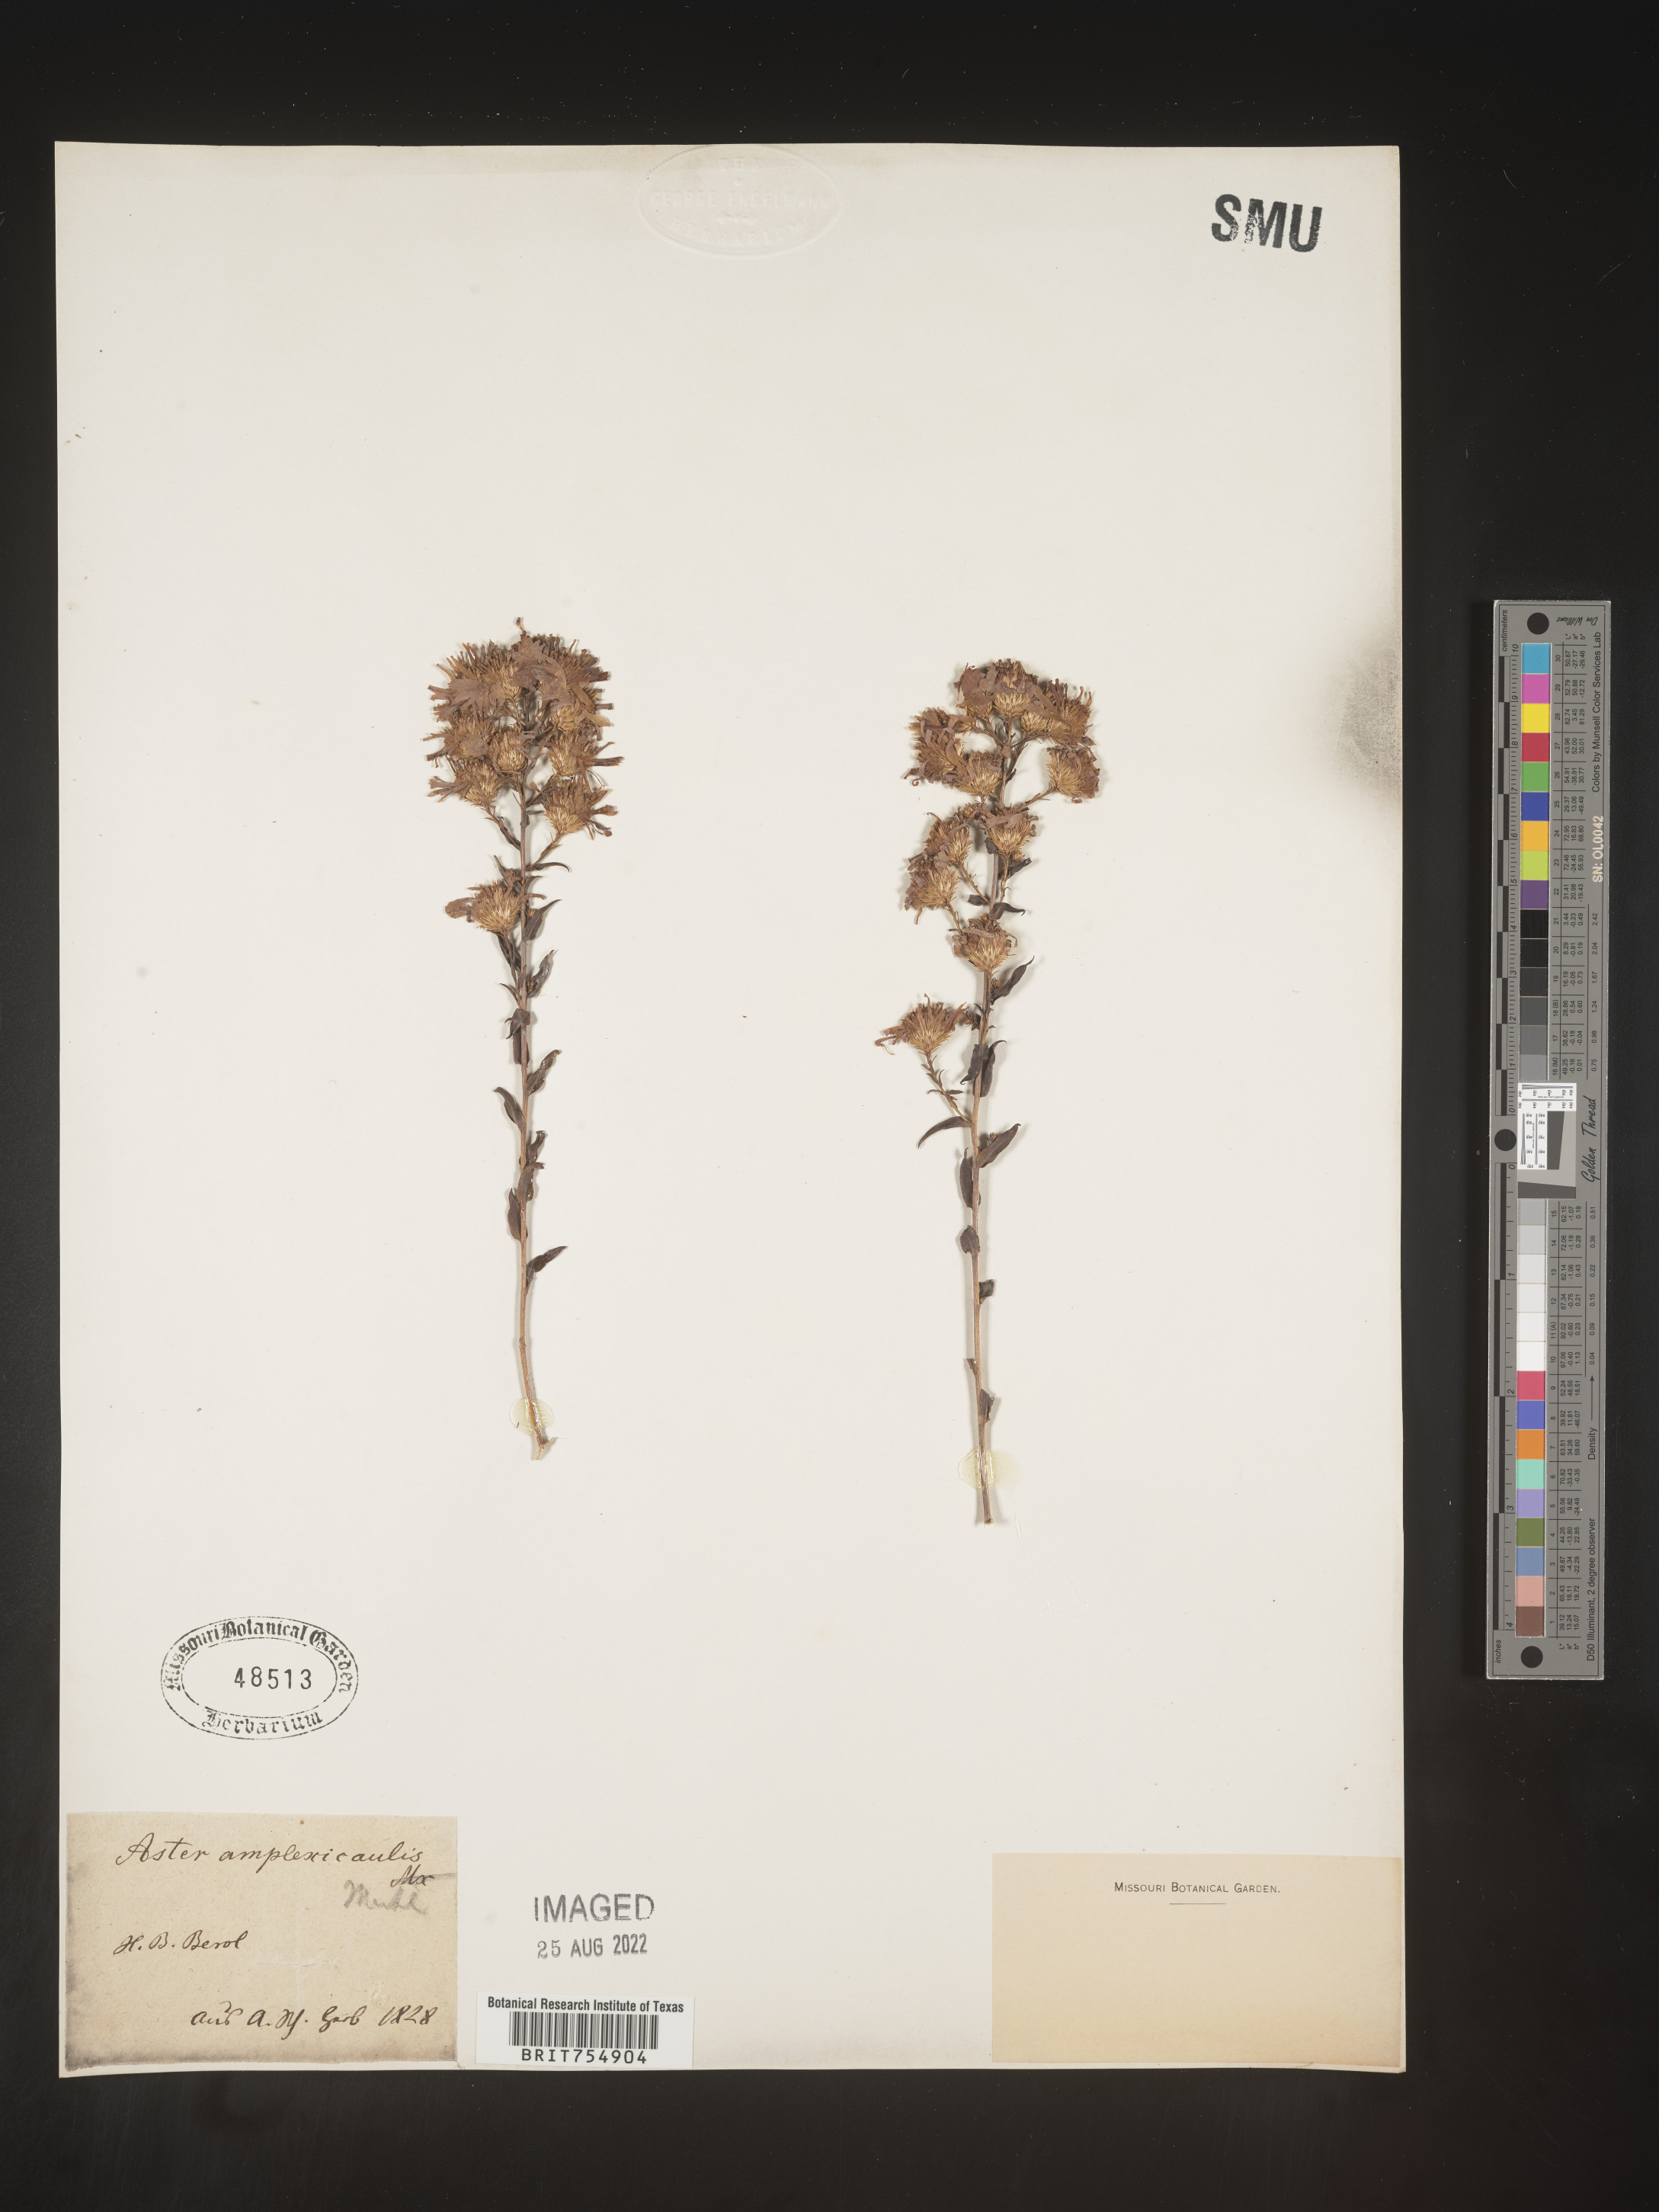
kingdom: Plantae
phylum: Tracheophyta
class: Magnoliopsida
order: Asterales
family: Asteraceae
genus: Symphyotrichum
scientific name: Symphyotrichum
